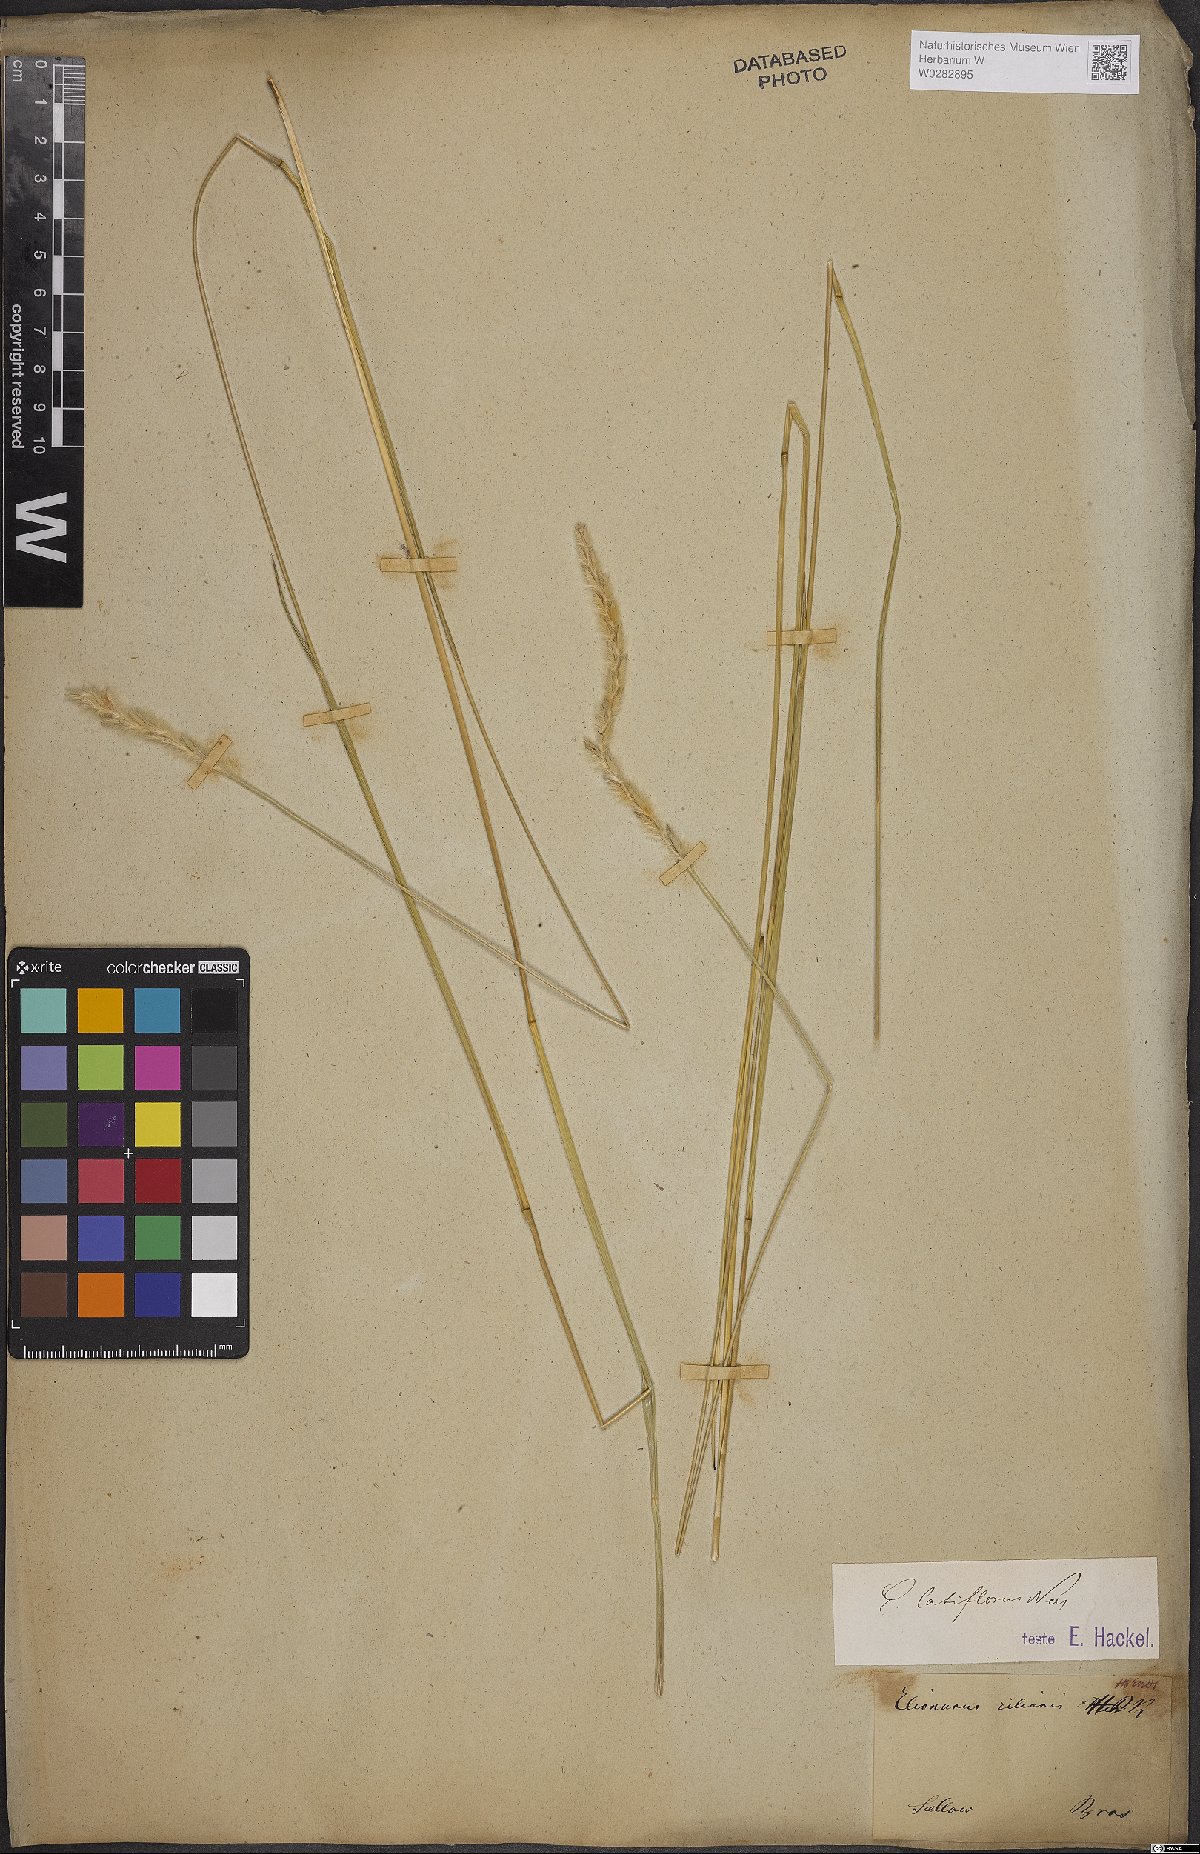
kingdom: Plantae
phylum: Tracheophyta
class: Liliopsida
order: Poales
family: Poaceae
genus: Elionurus
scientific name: Elionurus muticus
